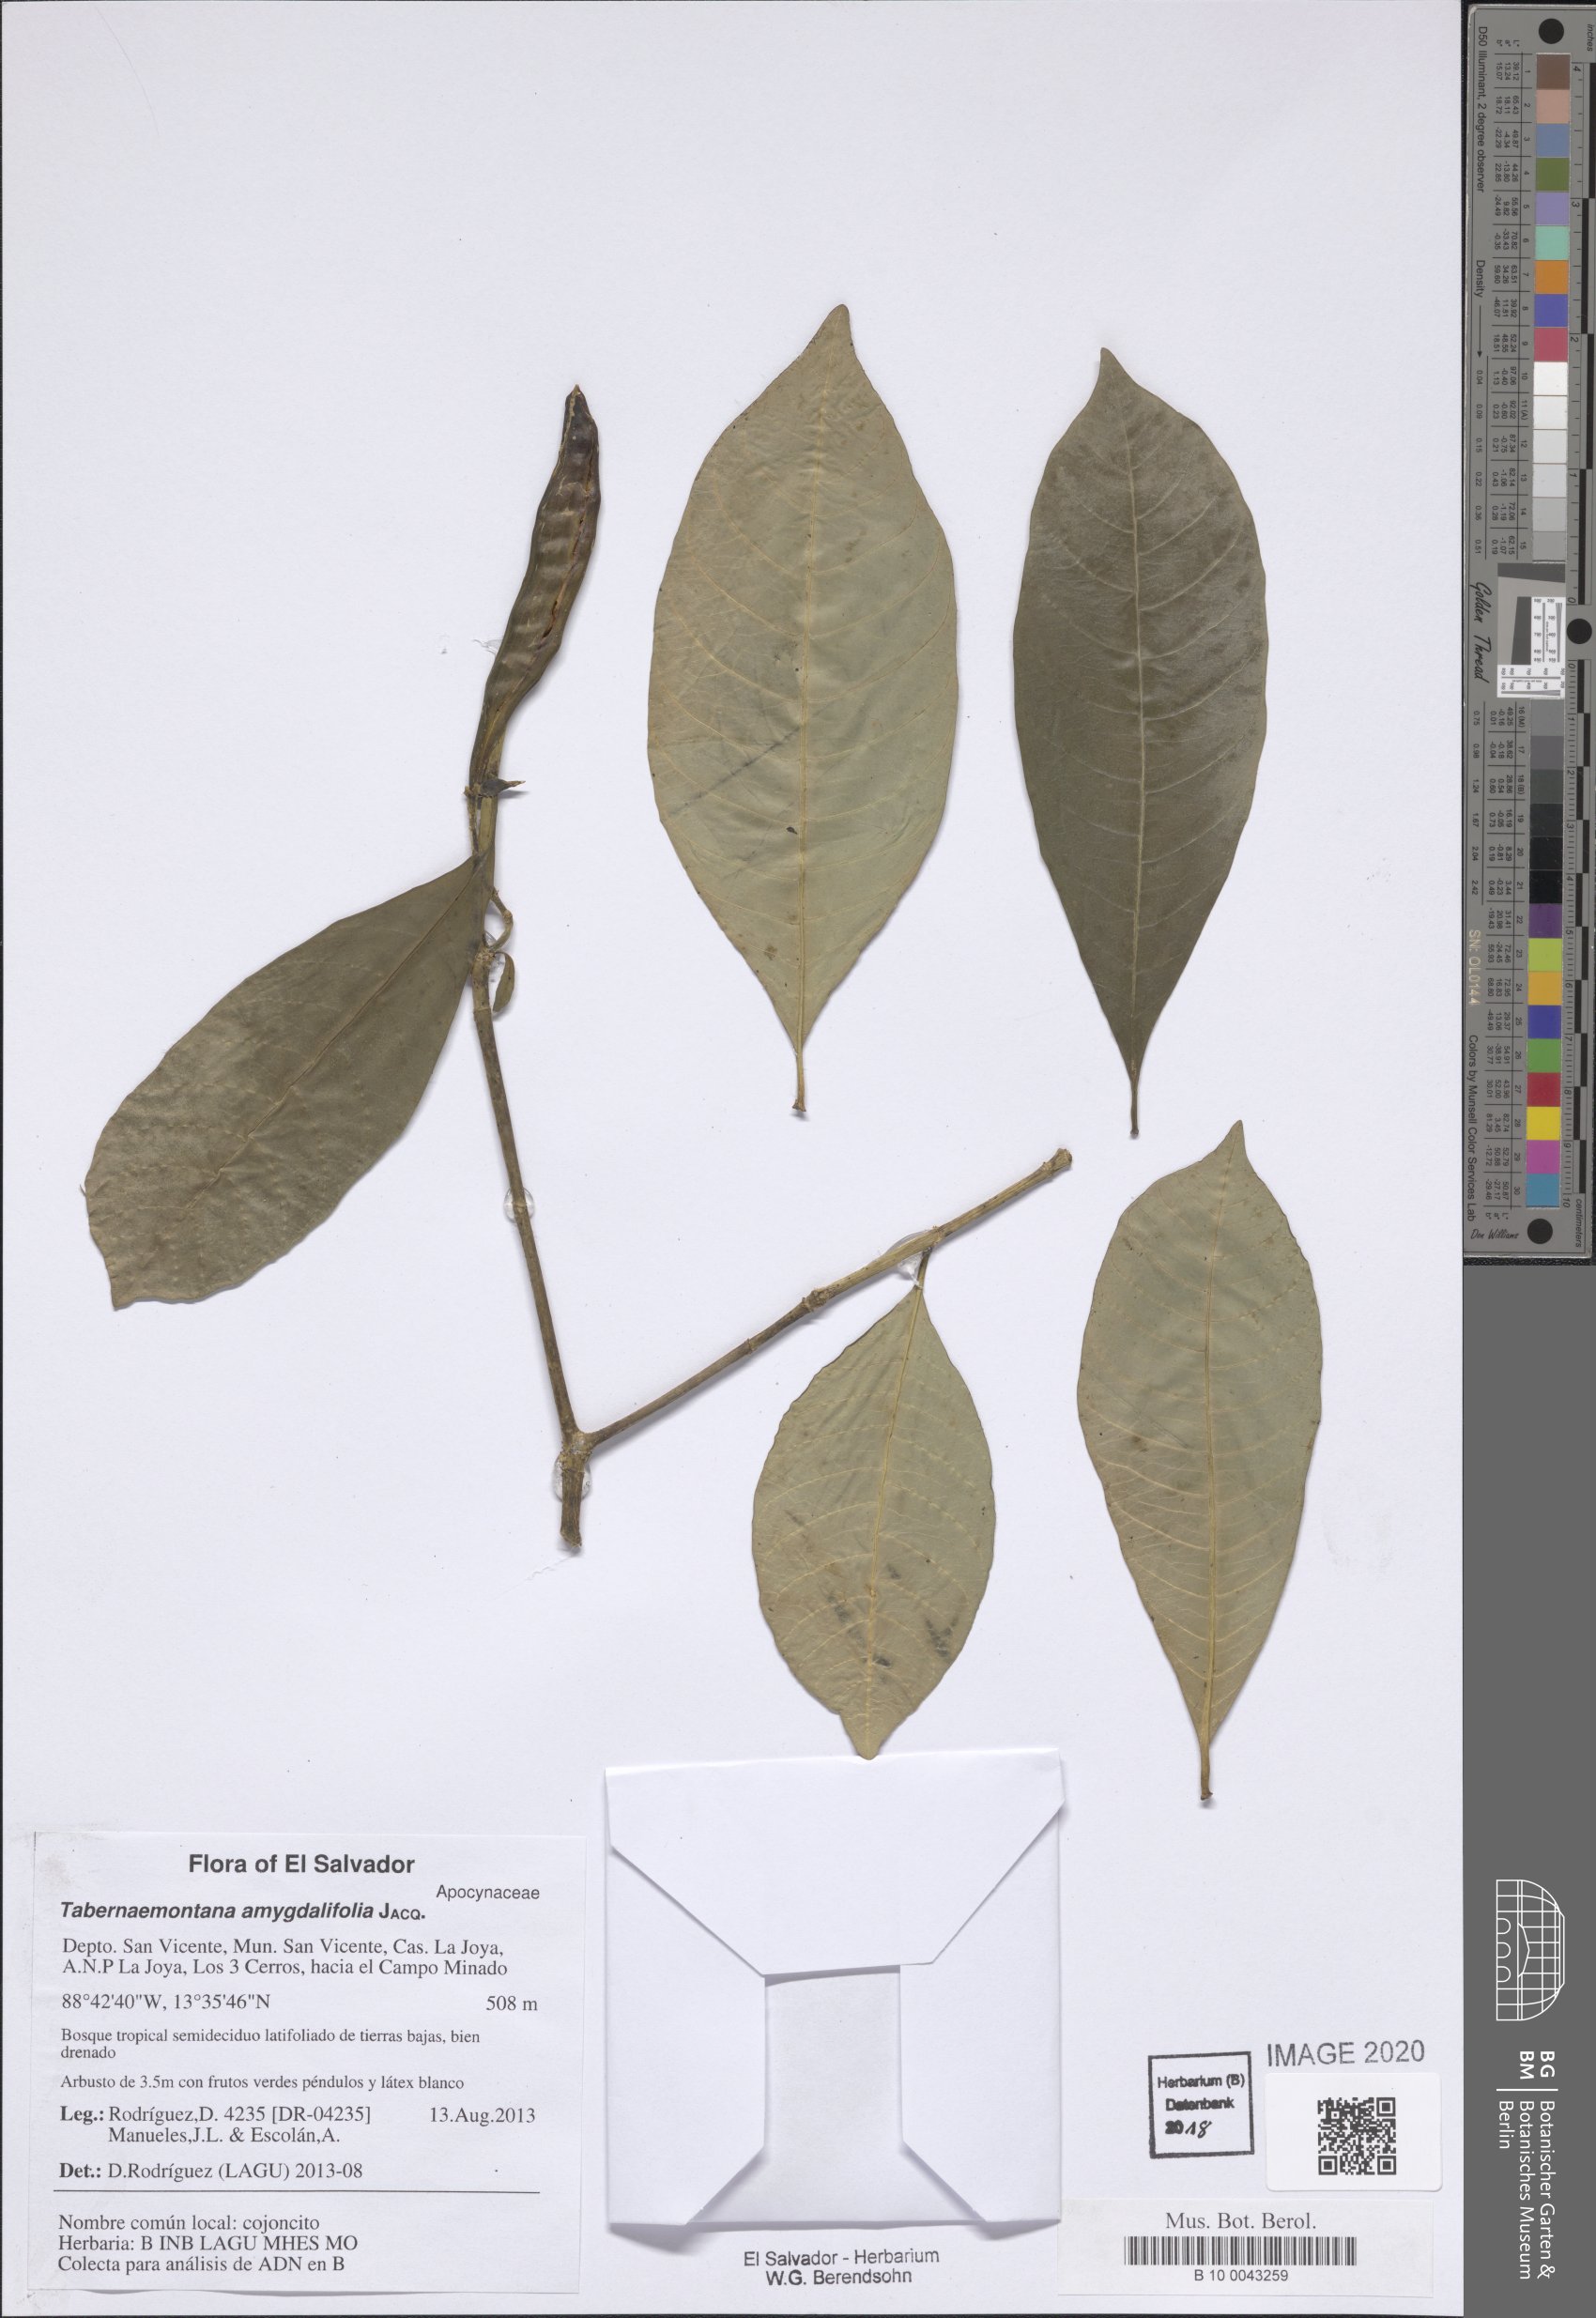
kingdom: Plantae
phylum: Tracheophyta
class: Magnoliopsida
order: Gentianales
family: Apocynaceae
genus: Tabernaemontana
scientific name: Tabernaemontana amygdalifolia
